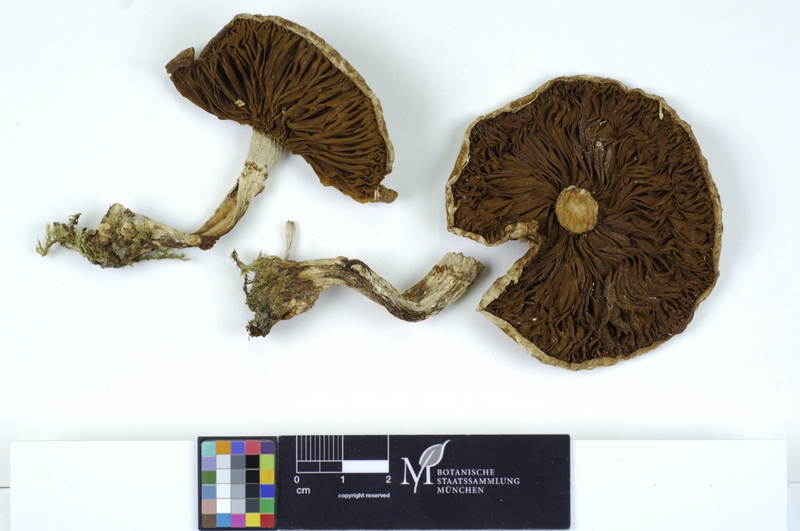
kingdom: Plantae
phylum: Tracheophyta
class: Magnoliopsida
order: Malpighiales
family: Salicaceae
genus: Populus
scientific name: Populus alba
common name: White poplar
